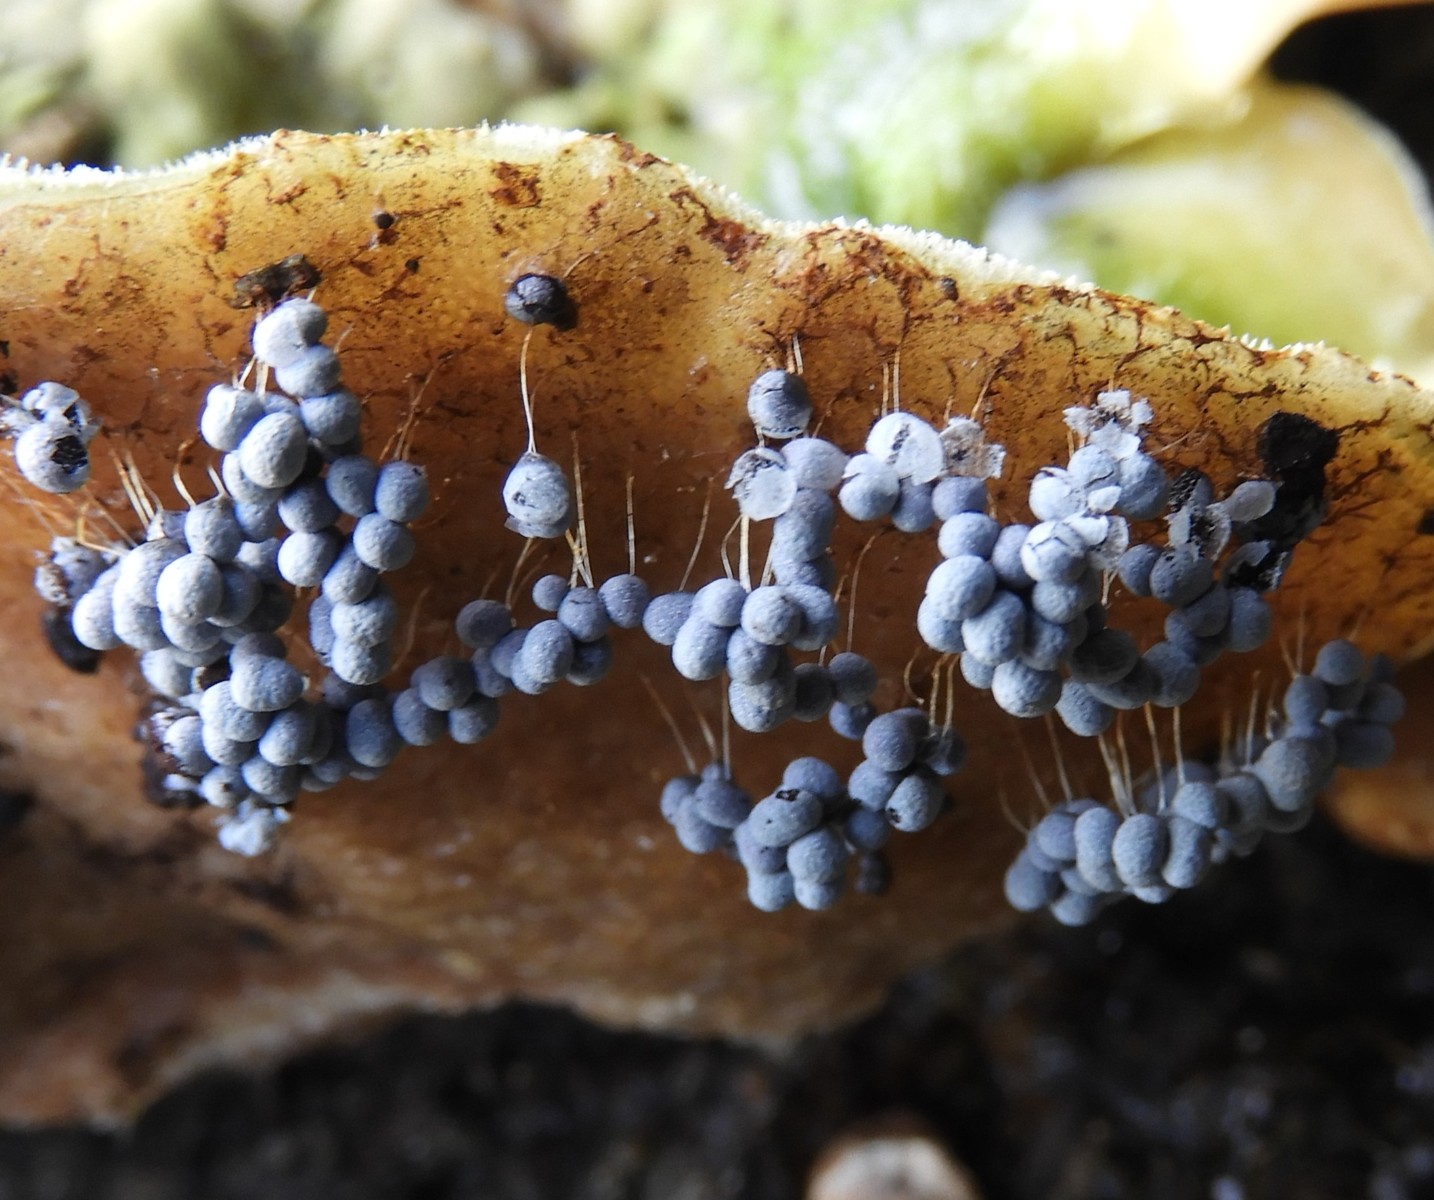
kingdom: Protozoa
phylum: Mycetozoa
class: Myxomycetes
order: Physarales
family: Physaraceae
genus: Badhamia
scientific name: Badhamia utricularis
